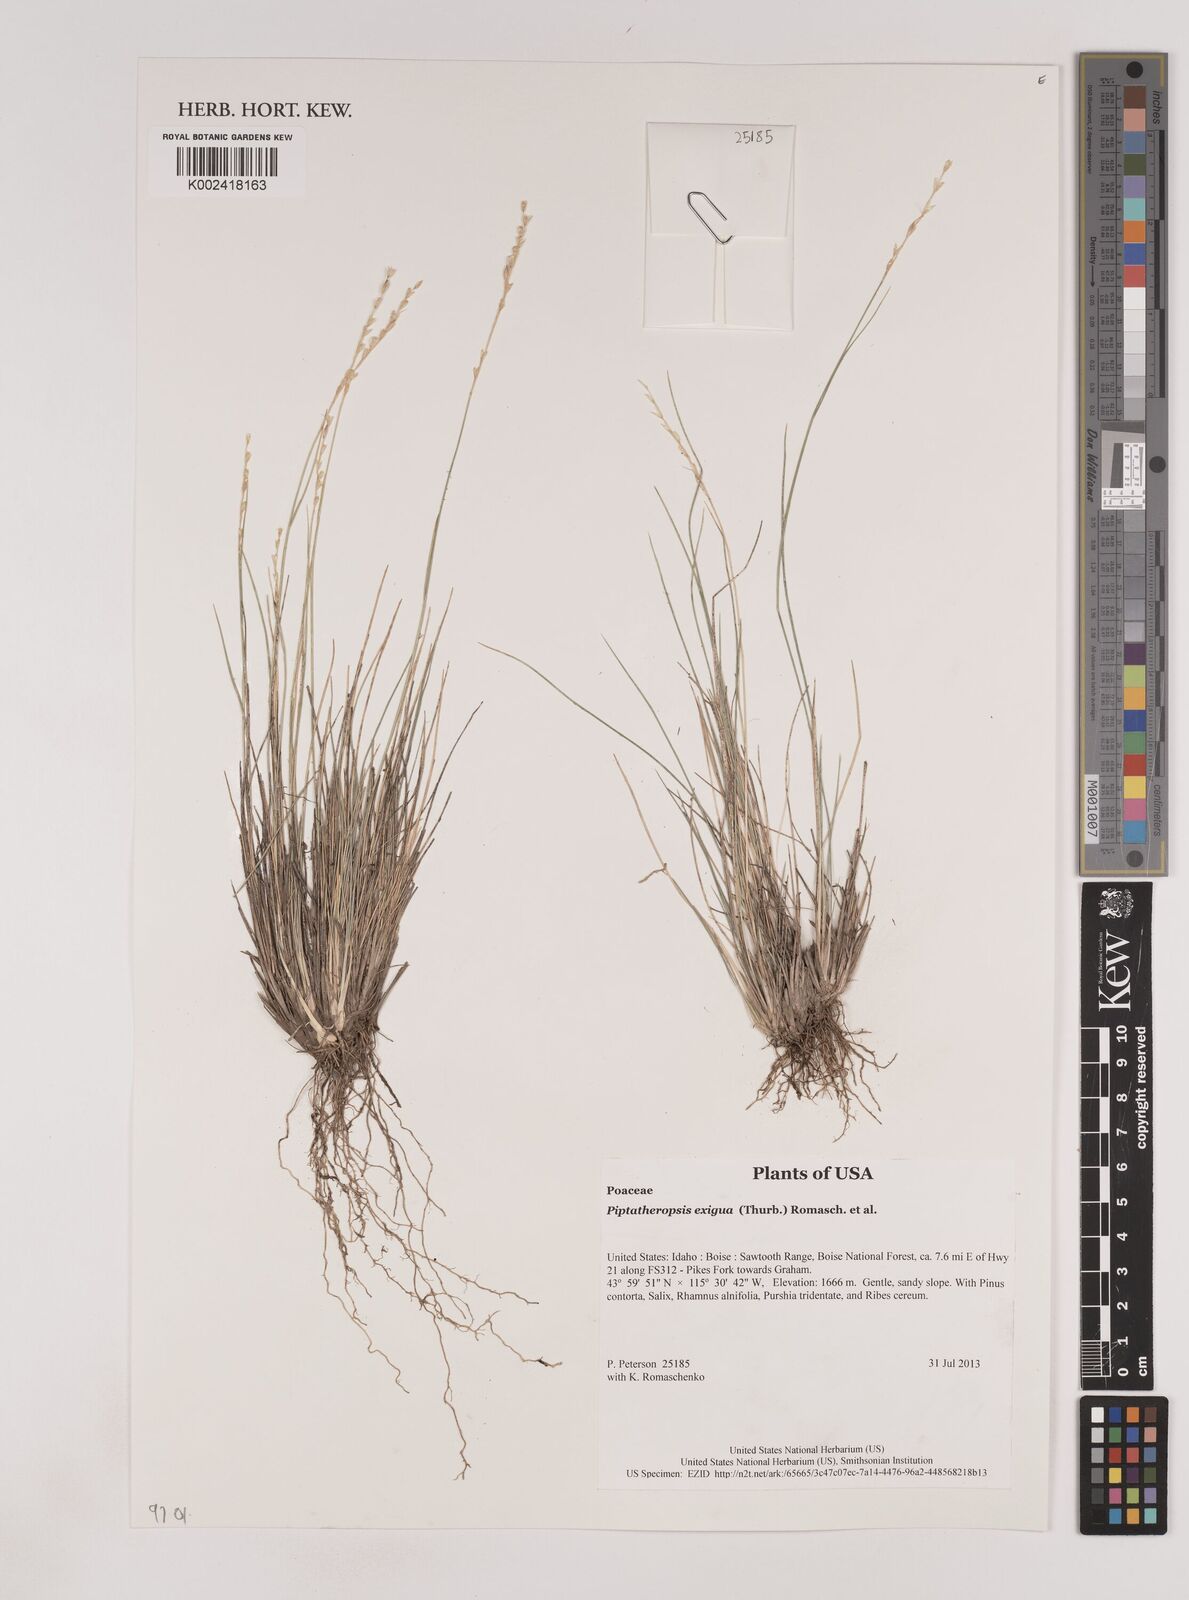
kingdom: Plantae
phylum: Tracheophyta
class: Liliopsida
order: Poales
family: Poaceae
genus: Piptatheropsis
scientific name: Piptatheropsis exigua
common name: Little mountain ricegrass
